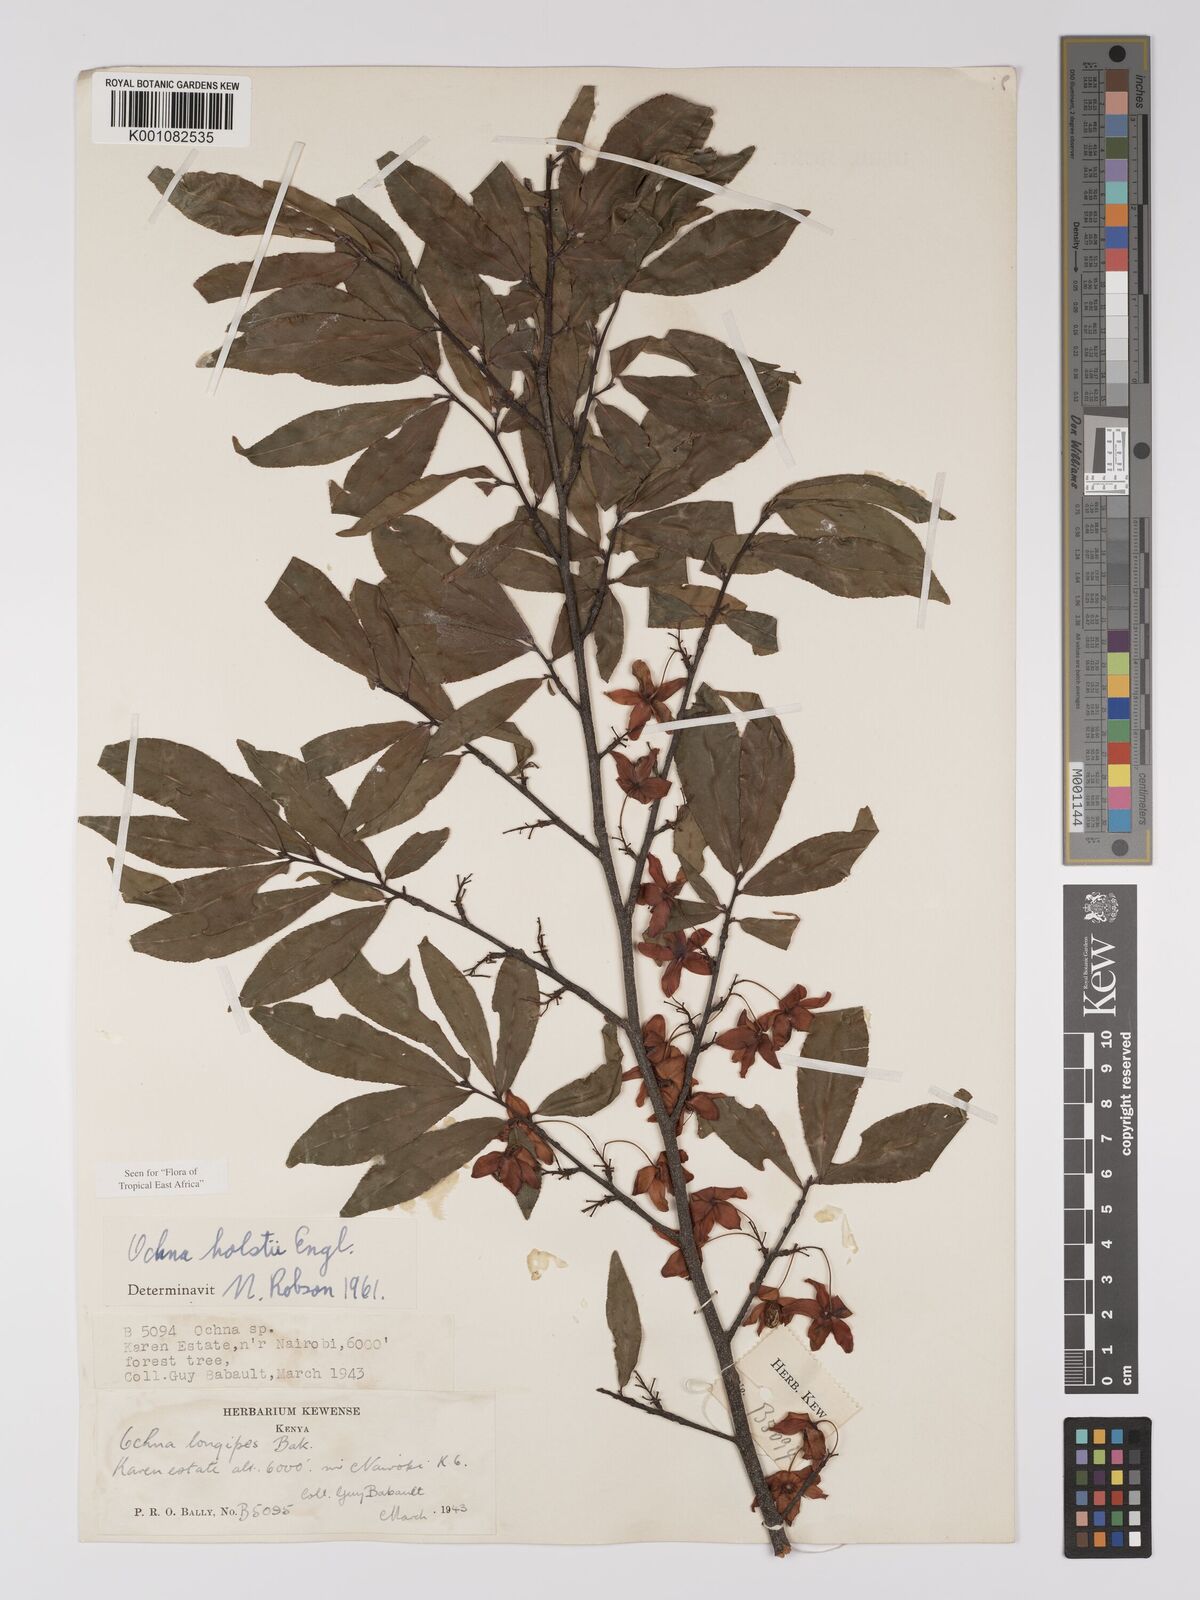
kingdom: Plantae
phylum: Tracheophyta
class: Magnoliopsida
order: Malpighiales
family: Ochnaceae
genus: Ochna
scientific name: Ochna holstii
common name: Red ironwood
